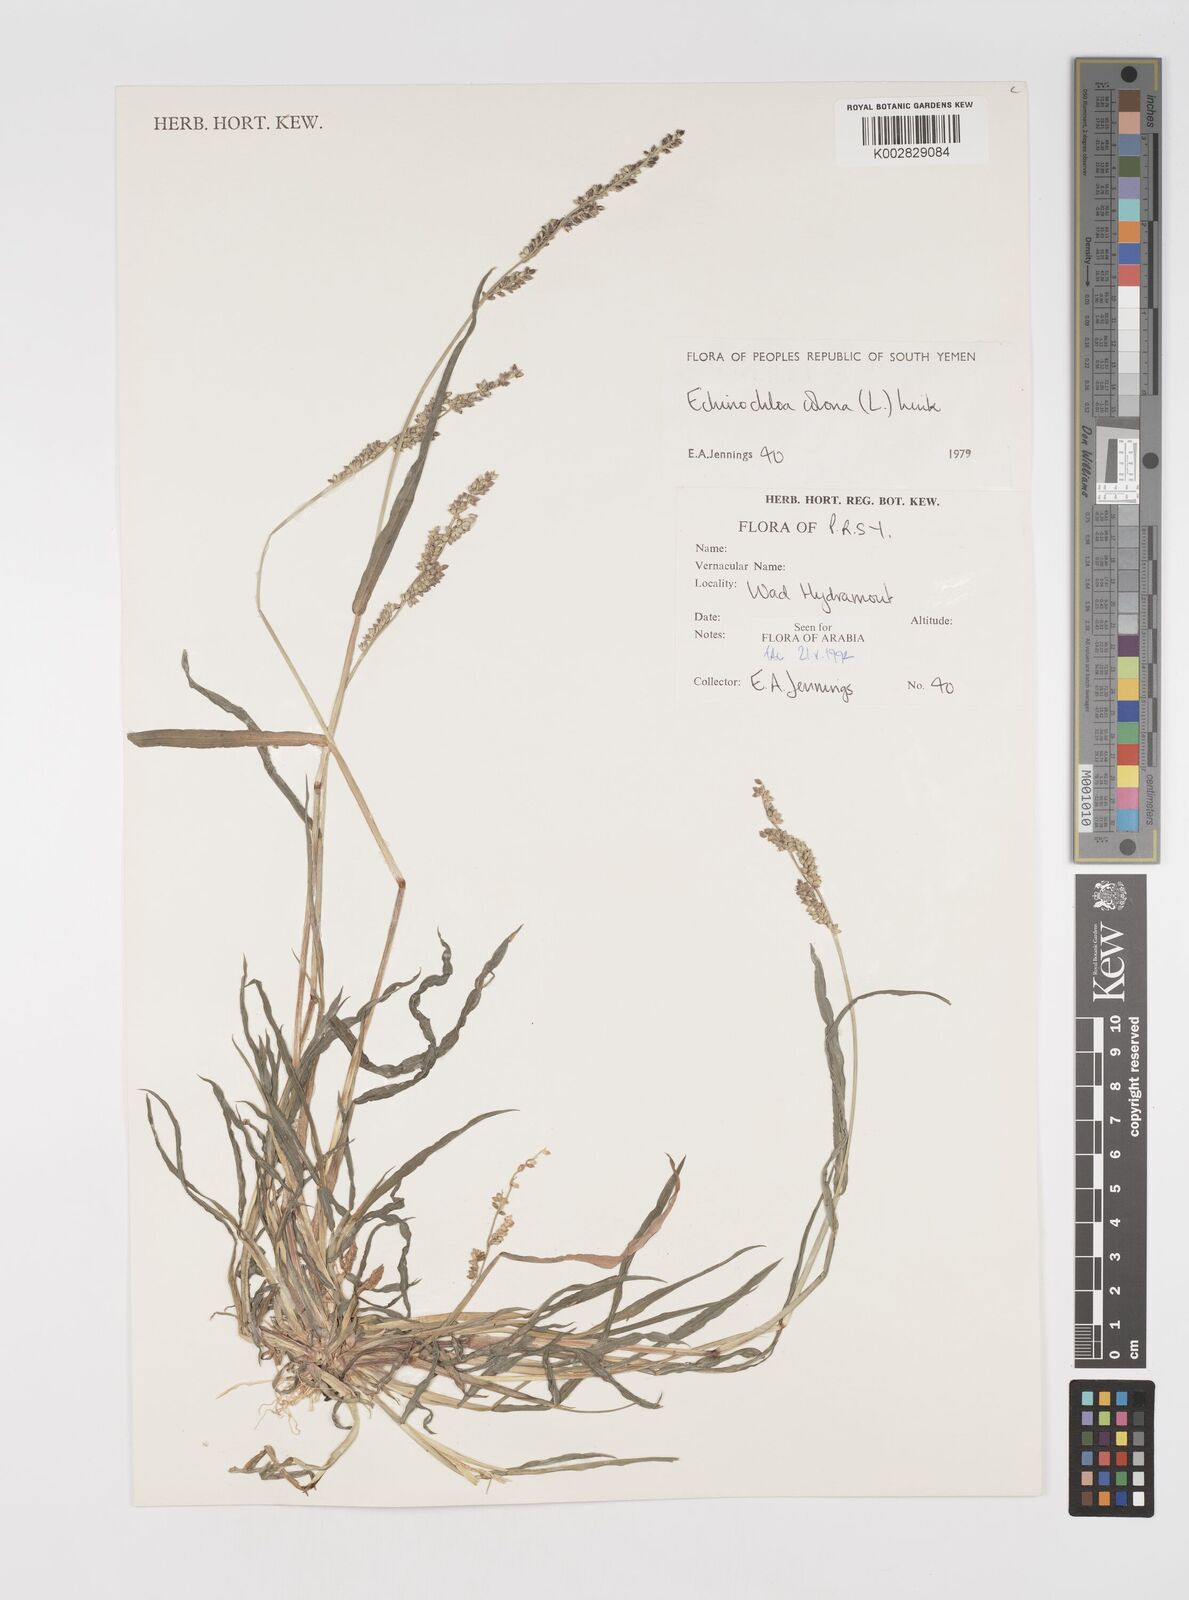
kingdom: Plantae
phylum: Tracheophyta
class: Liliopsida
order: Poales
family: Poaceae
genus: Echinochloa
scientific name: Echinochloa colonum
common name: Jungle rice
